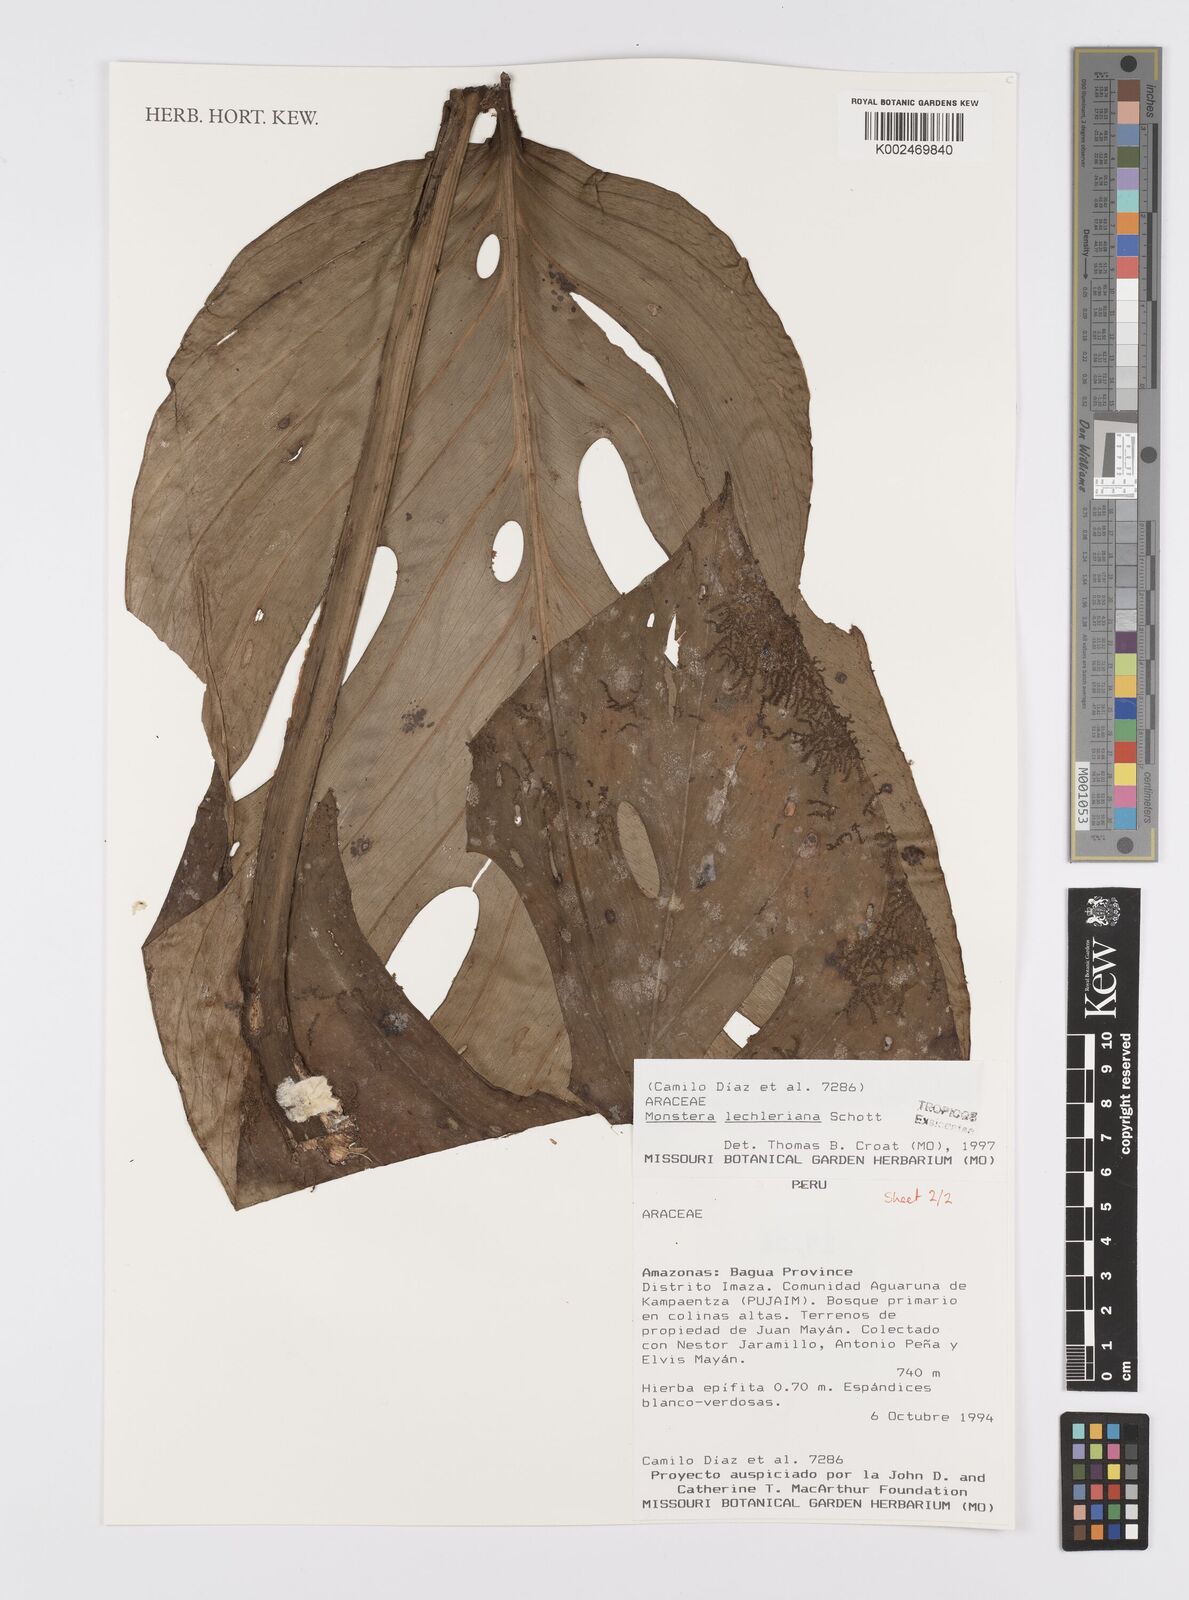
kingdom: Plantae
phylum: Tracheophyta
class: Liliopsida
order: Alismatales
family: Araceae
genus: Monstera
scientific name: Monstera lechleriana
